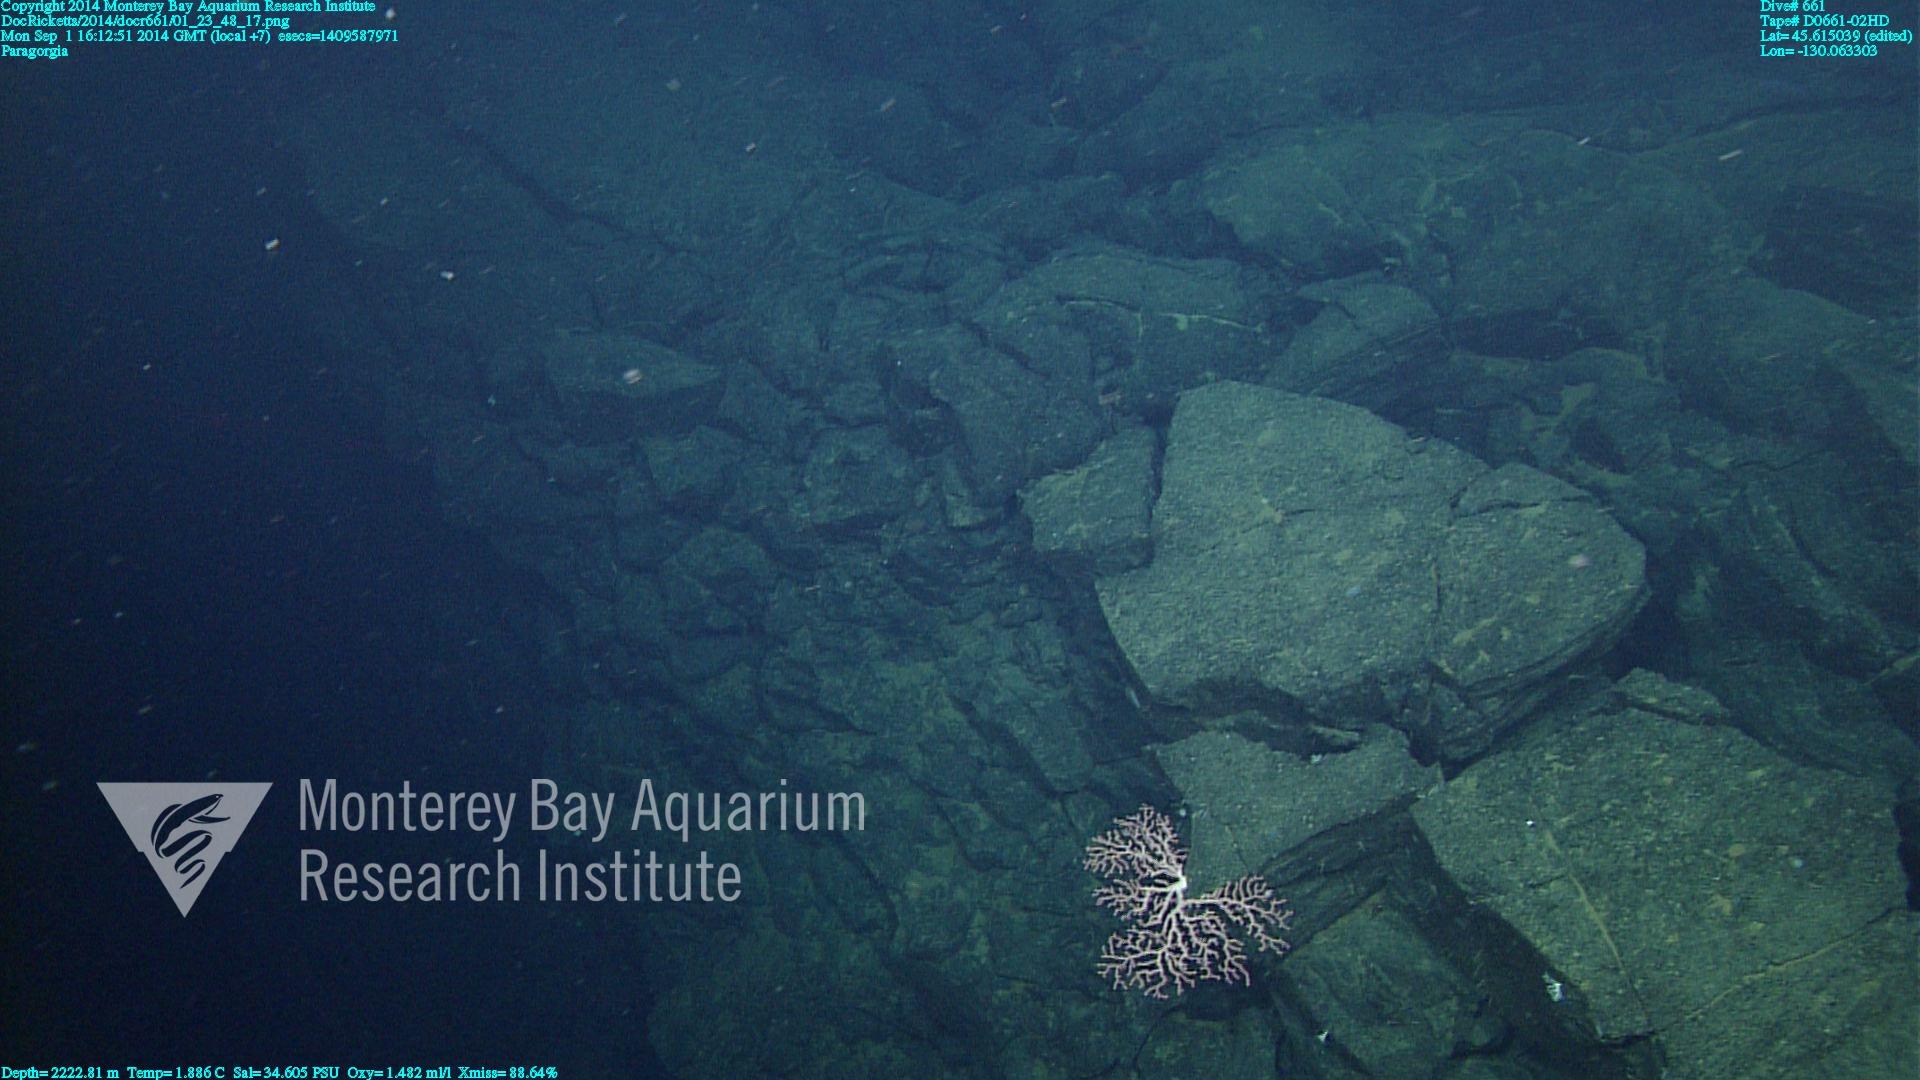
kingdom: Animalia
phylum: Cnidaria
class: Anthozoa
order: Scleralcyonacea
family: Coralliidae
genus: Paragorgia
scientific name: Paragorgia
